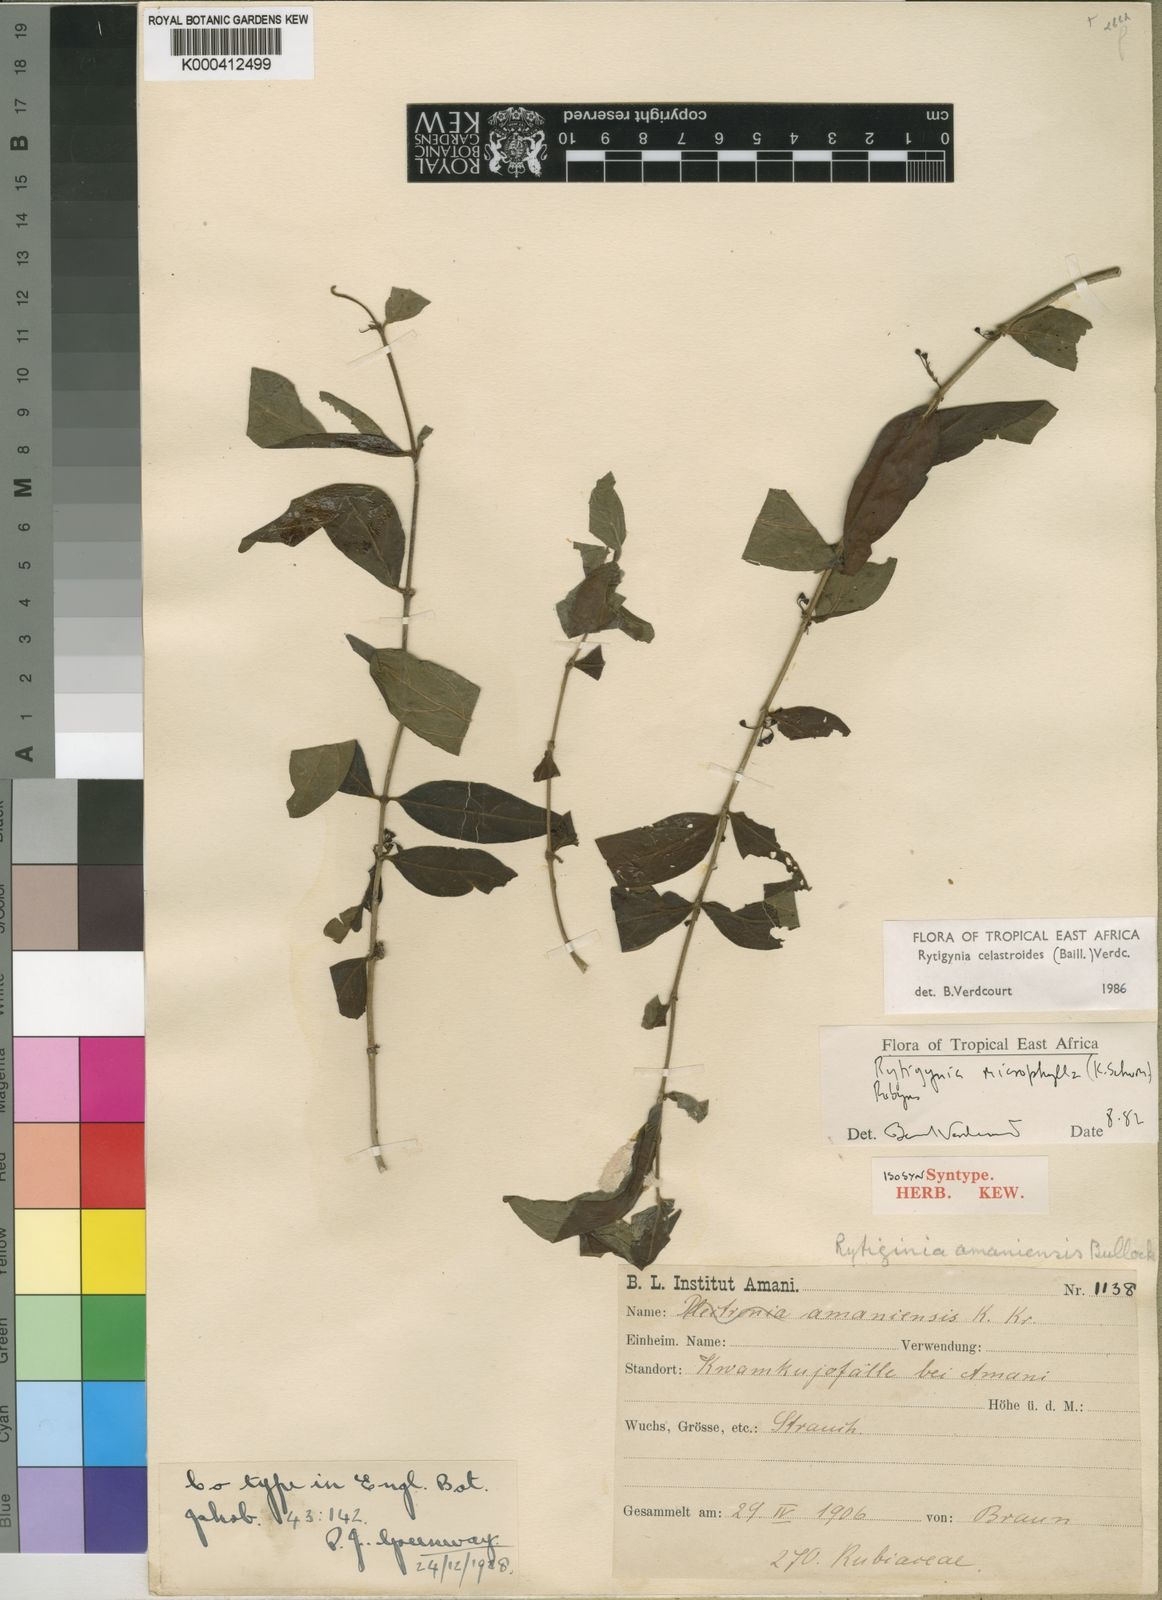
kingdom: Plantae
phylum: Tracheophyta
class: Magnoliopsida
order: Gentianales
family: Rubiaceae
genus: Rytigynia
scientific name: Rytigynia celastroides
